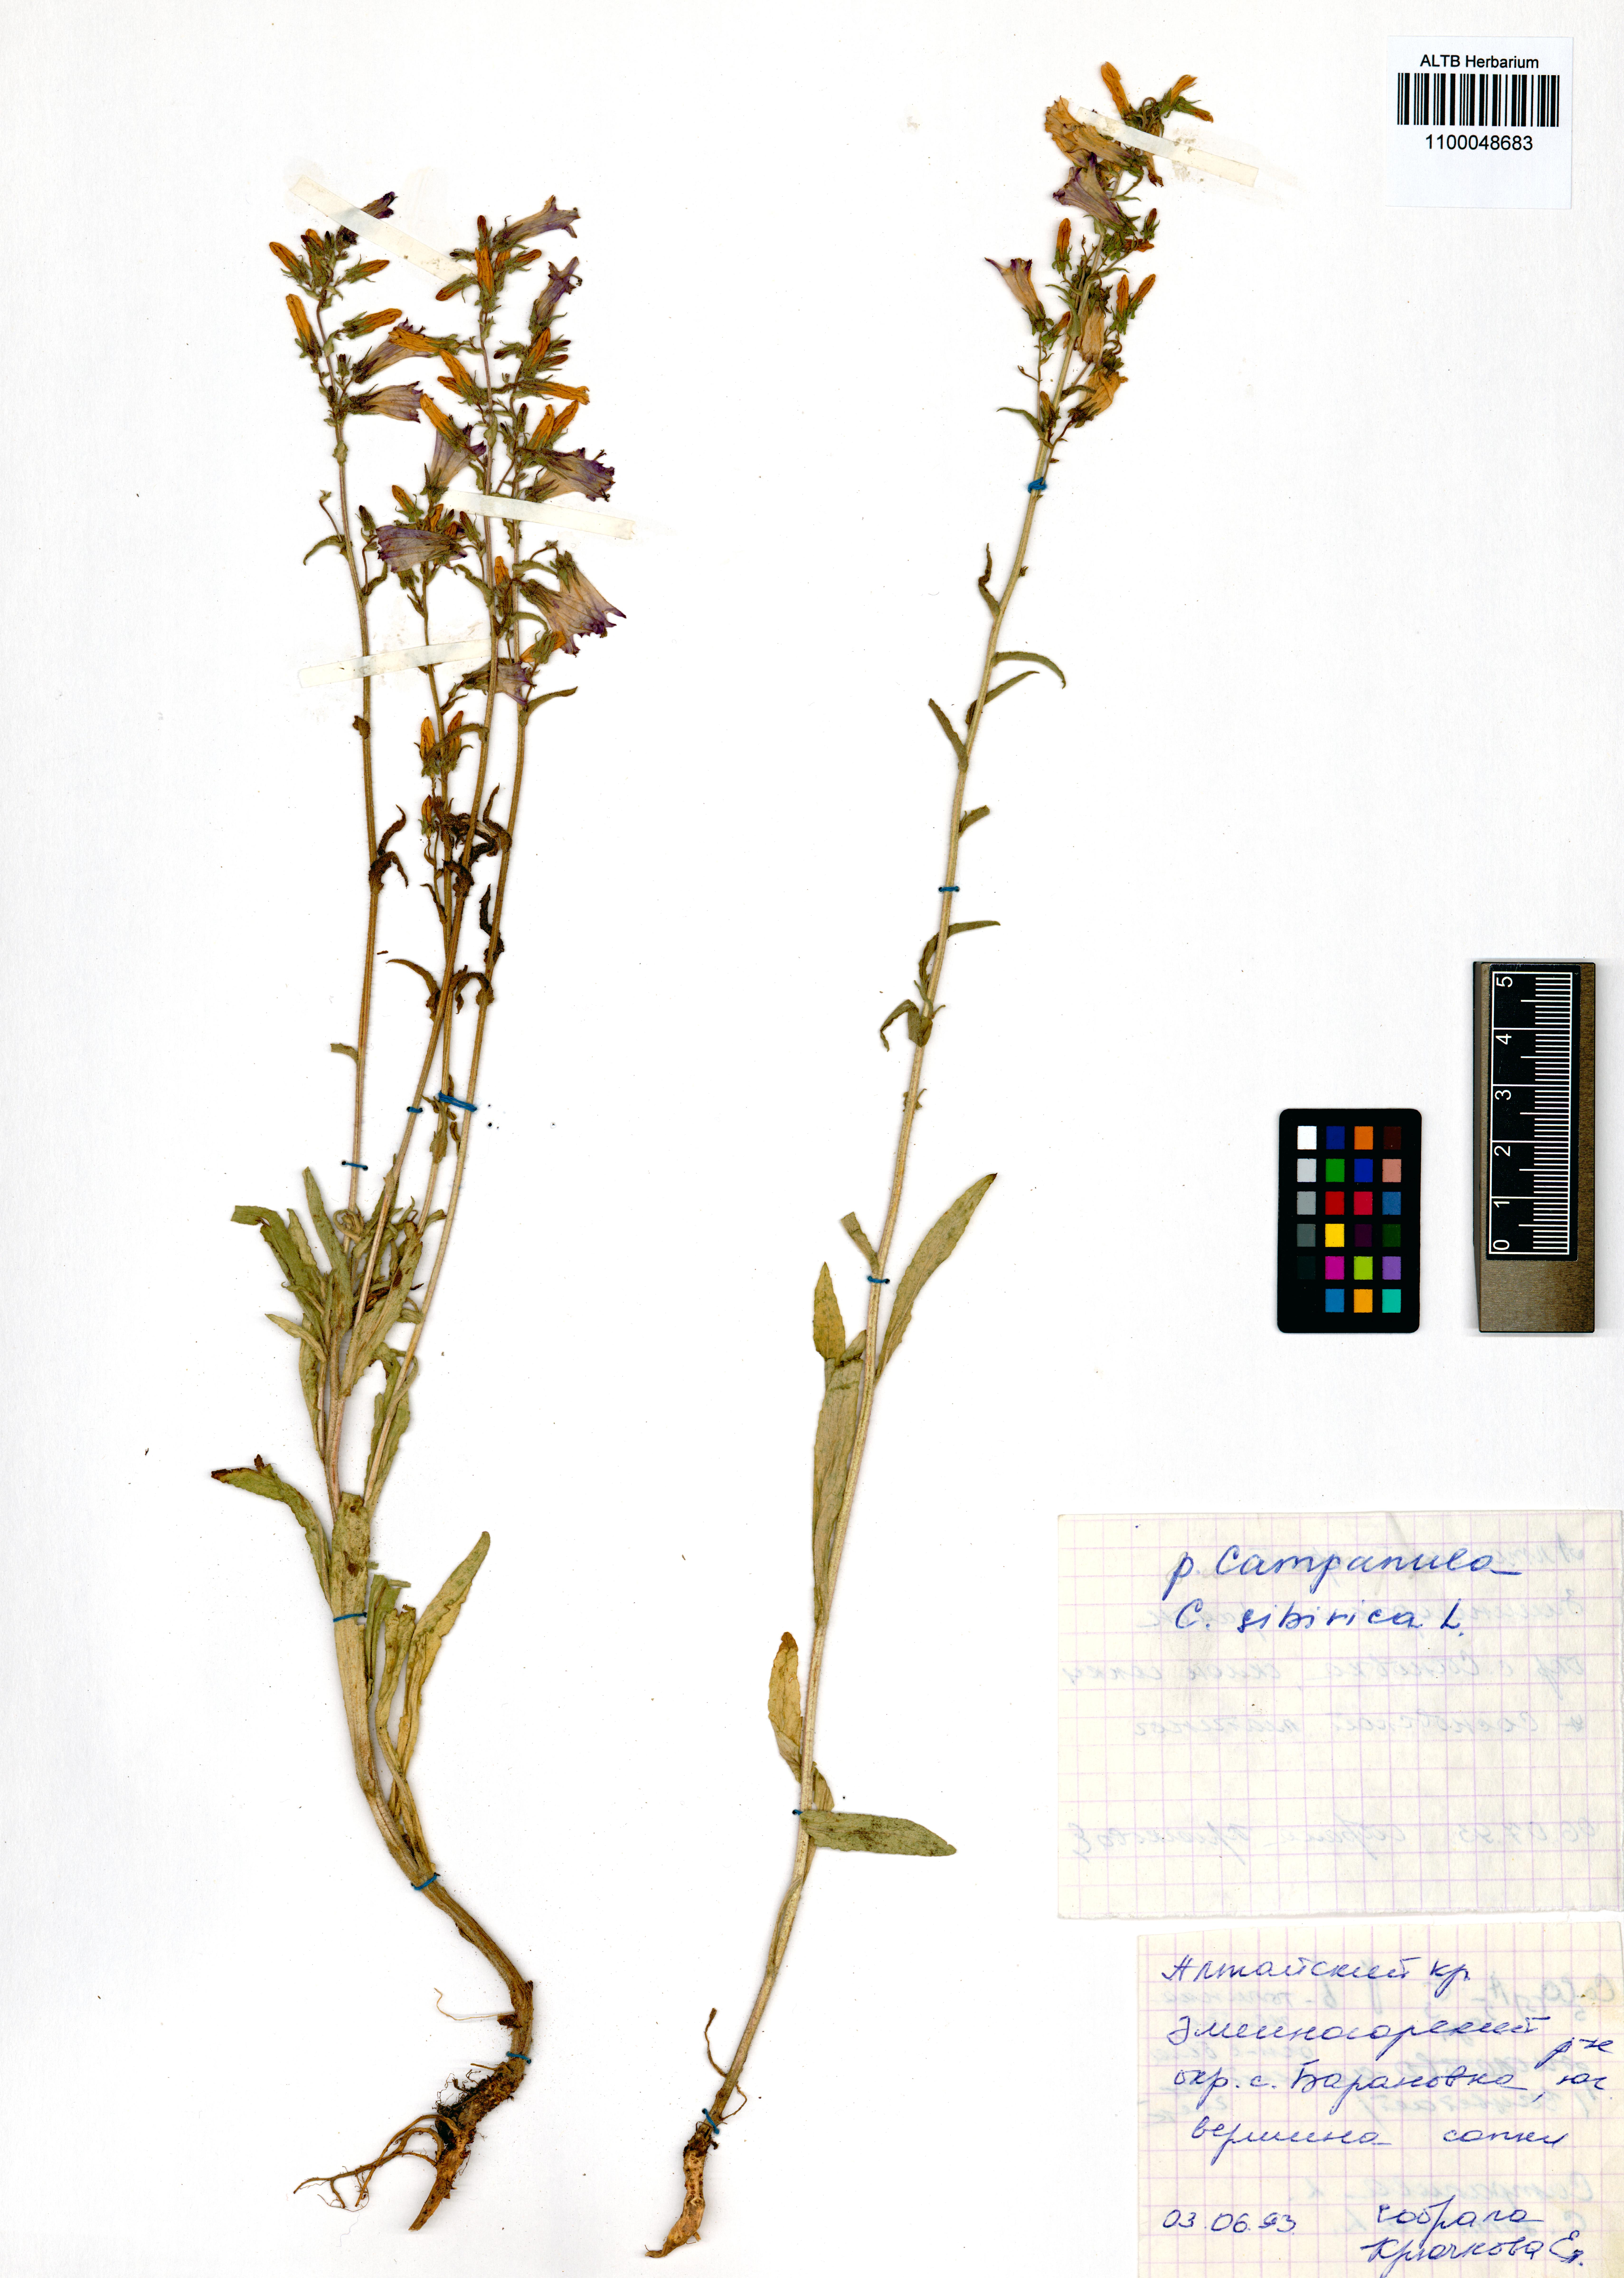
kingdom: Plantae
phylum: Tracheophyta
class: Magnoliopsida
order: Asterales
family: Campanulaceae
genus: Campanula
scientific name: Campanula sibirica
